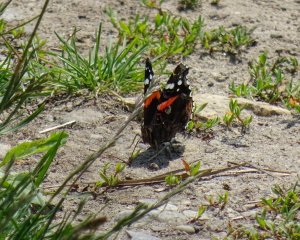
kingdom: Animalia
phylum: Arthropoda
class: Insecta
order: Lepidoptera
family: Nymphalidae
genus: Vanessa
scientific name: Vanessa atalanta
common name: Red Admiral
